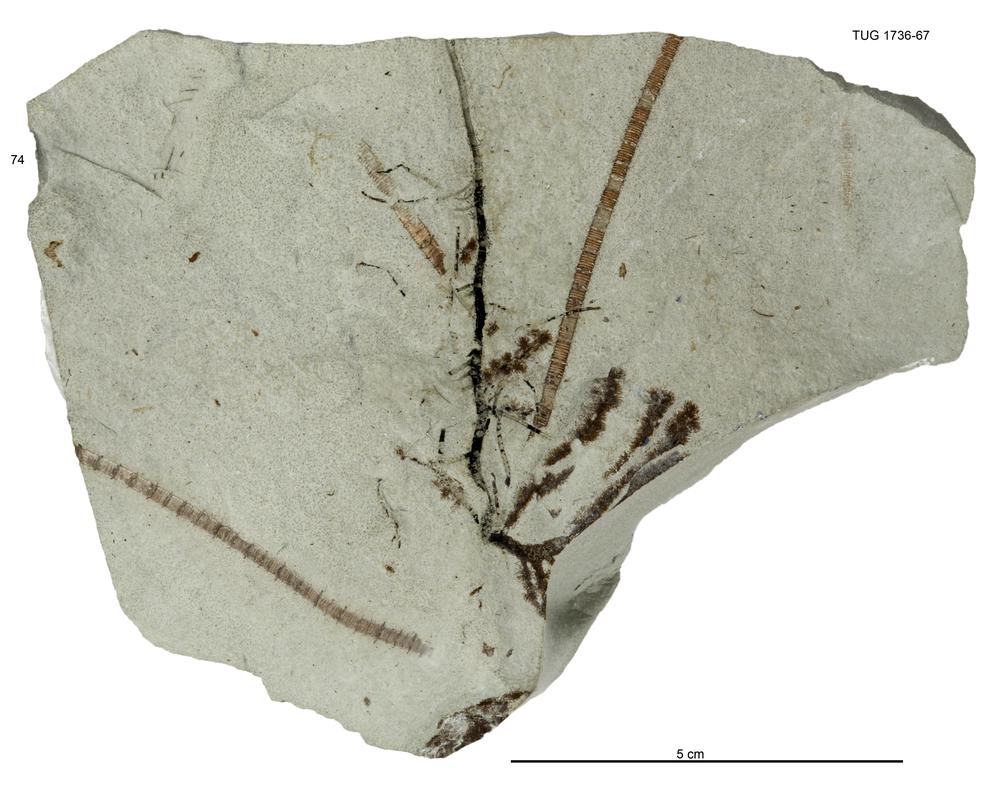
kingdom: Animalia
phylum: Echinodermata
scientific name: Echinodermata
